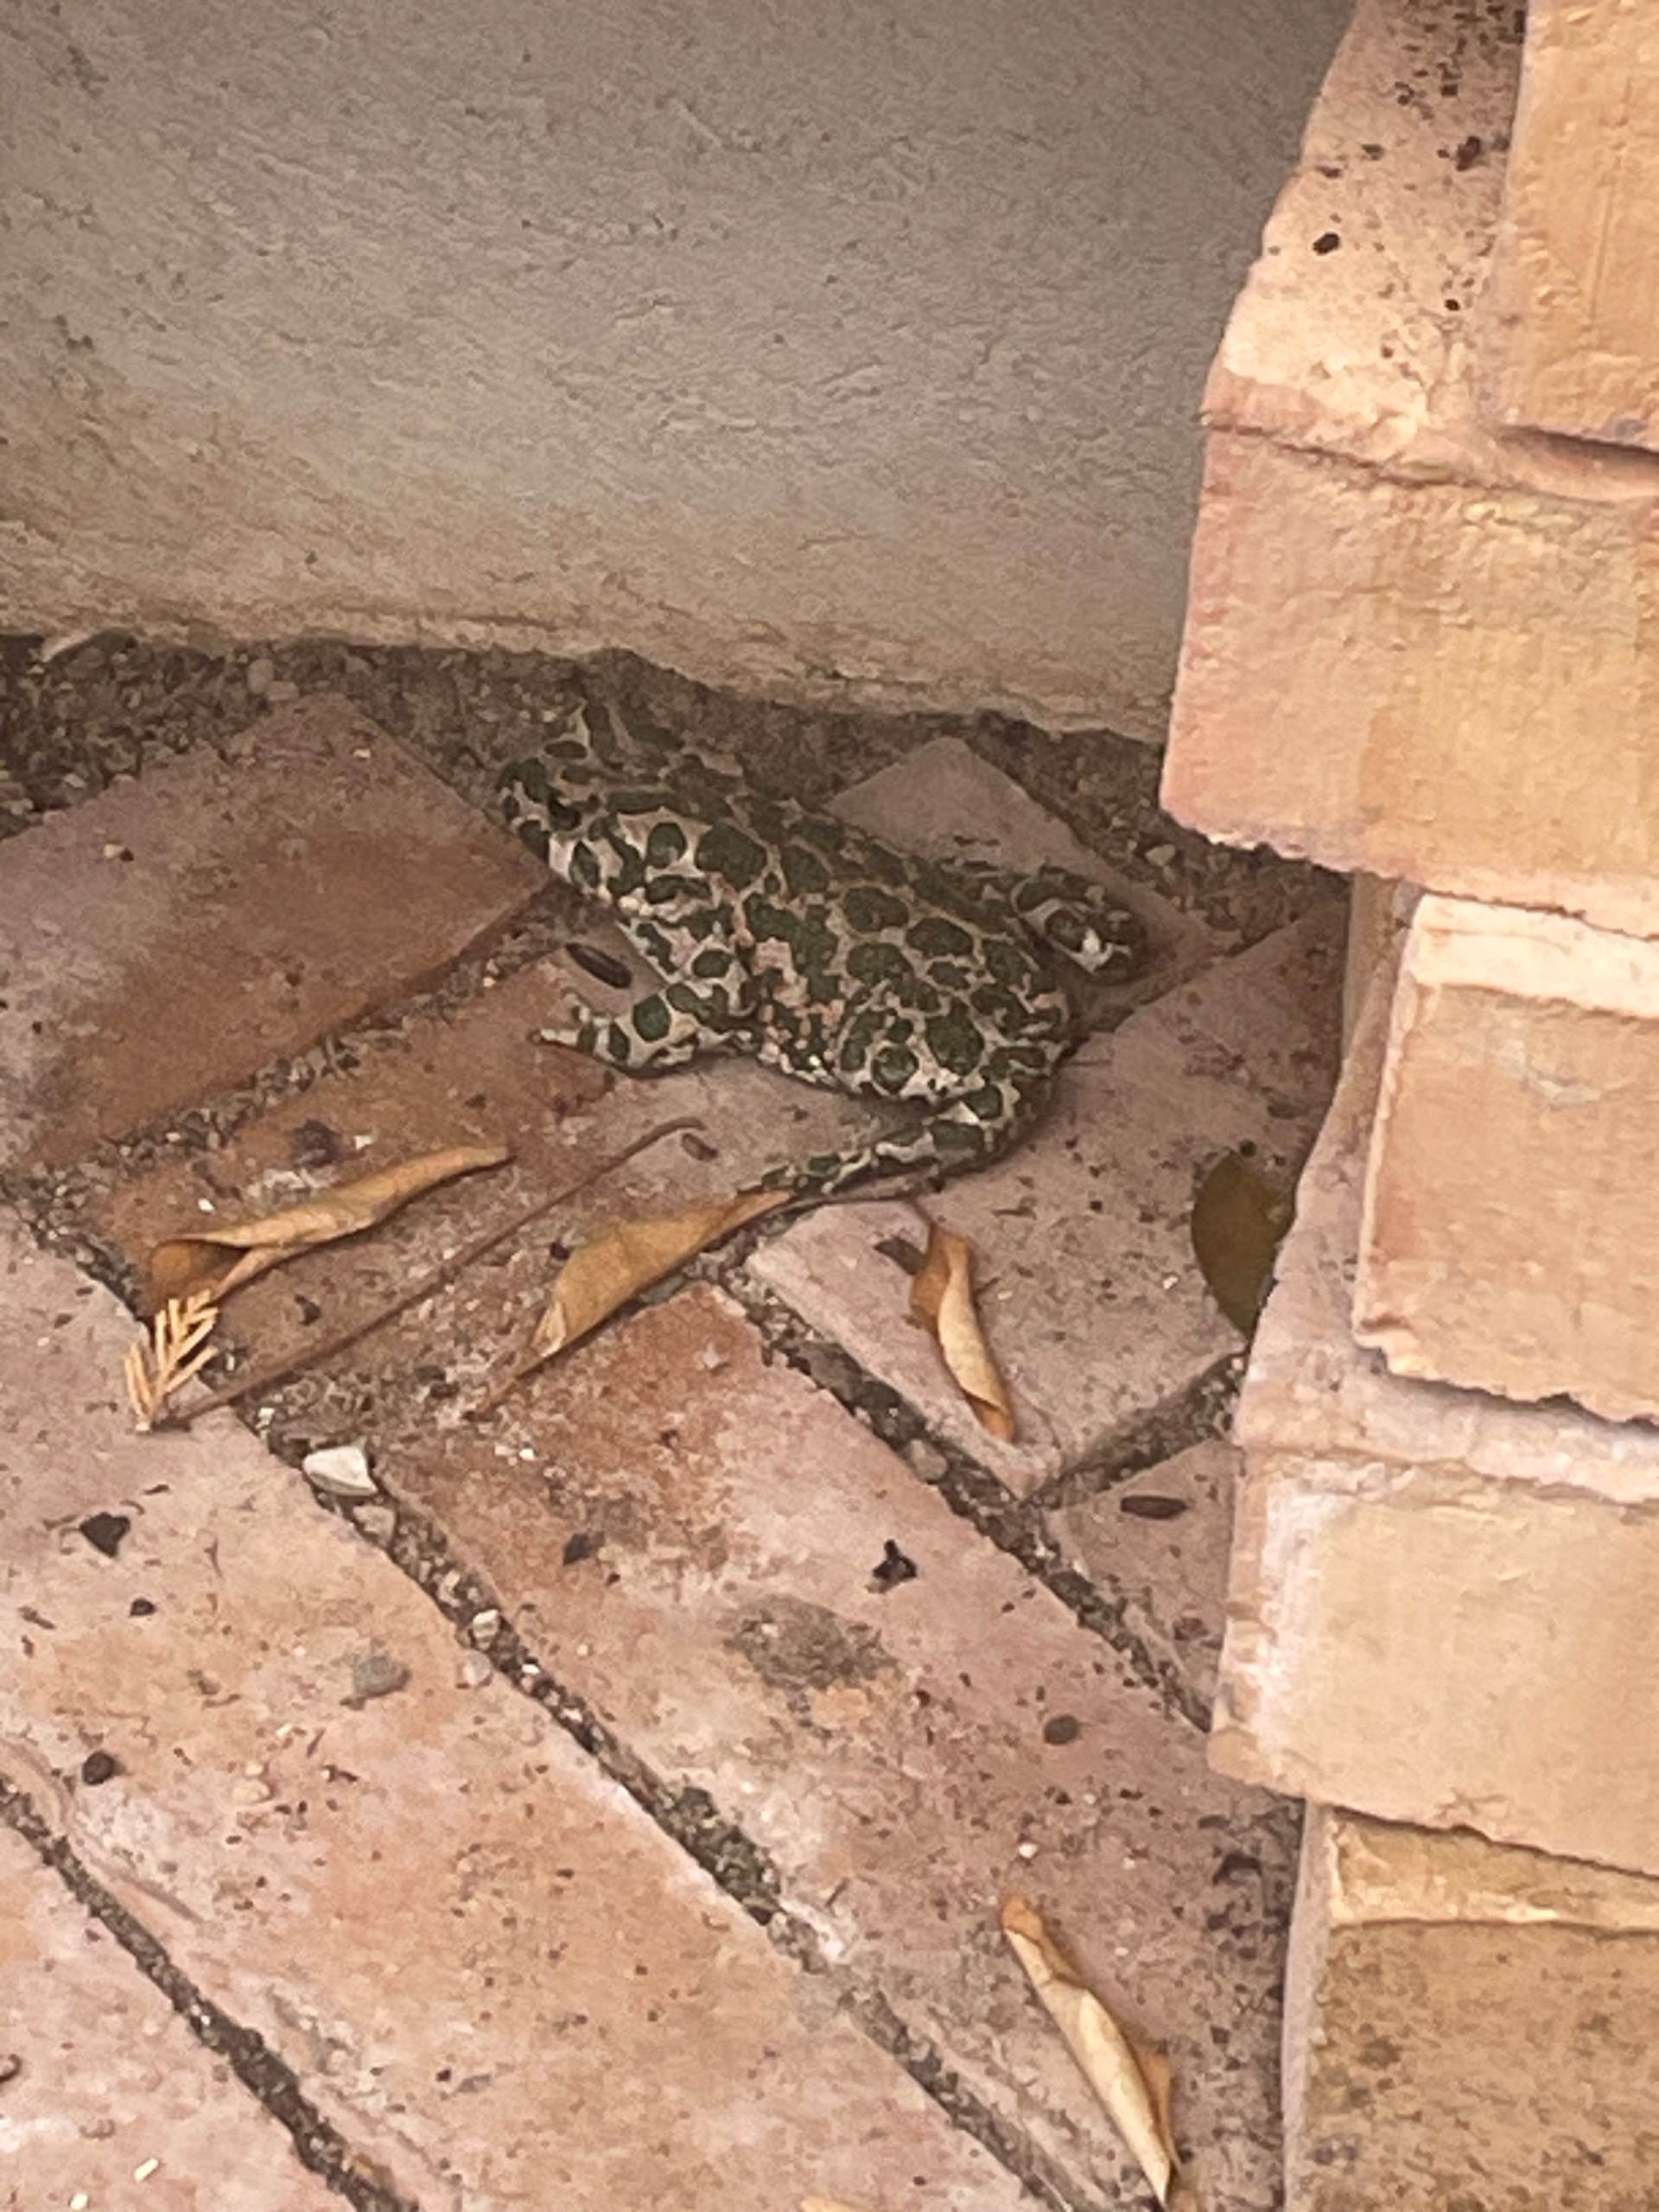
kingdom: Animalia
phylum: Chordata
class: Amphibia
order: Anura
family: Bufonidae
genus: Bufotes
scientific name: Bufotes viridis
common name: Grønbroget tudse
